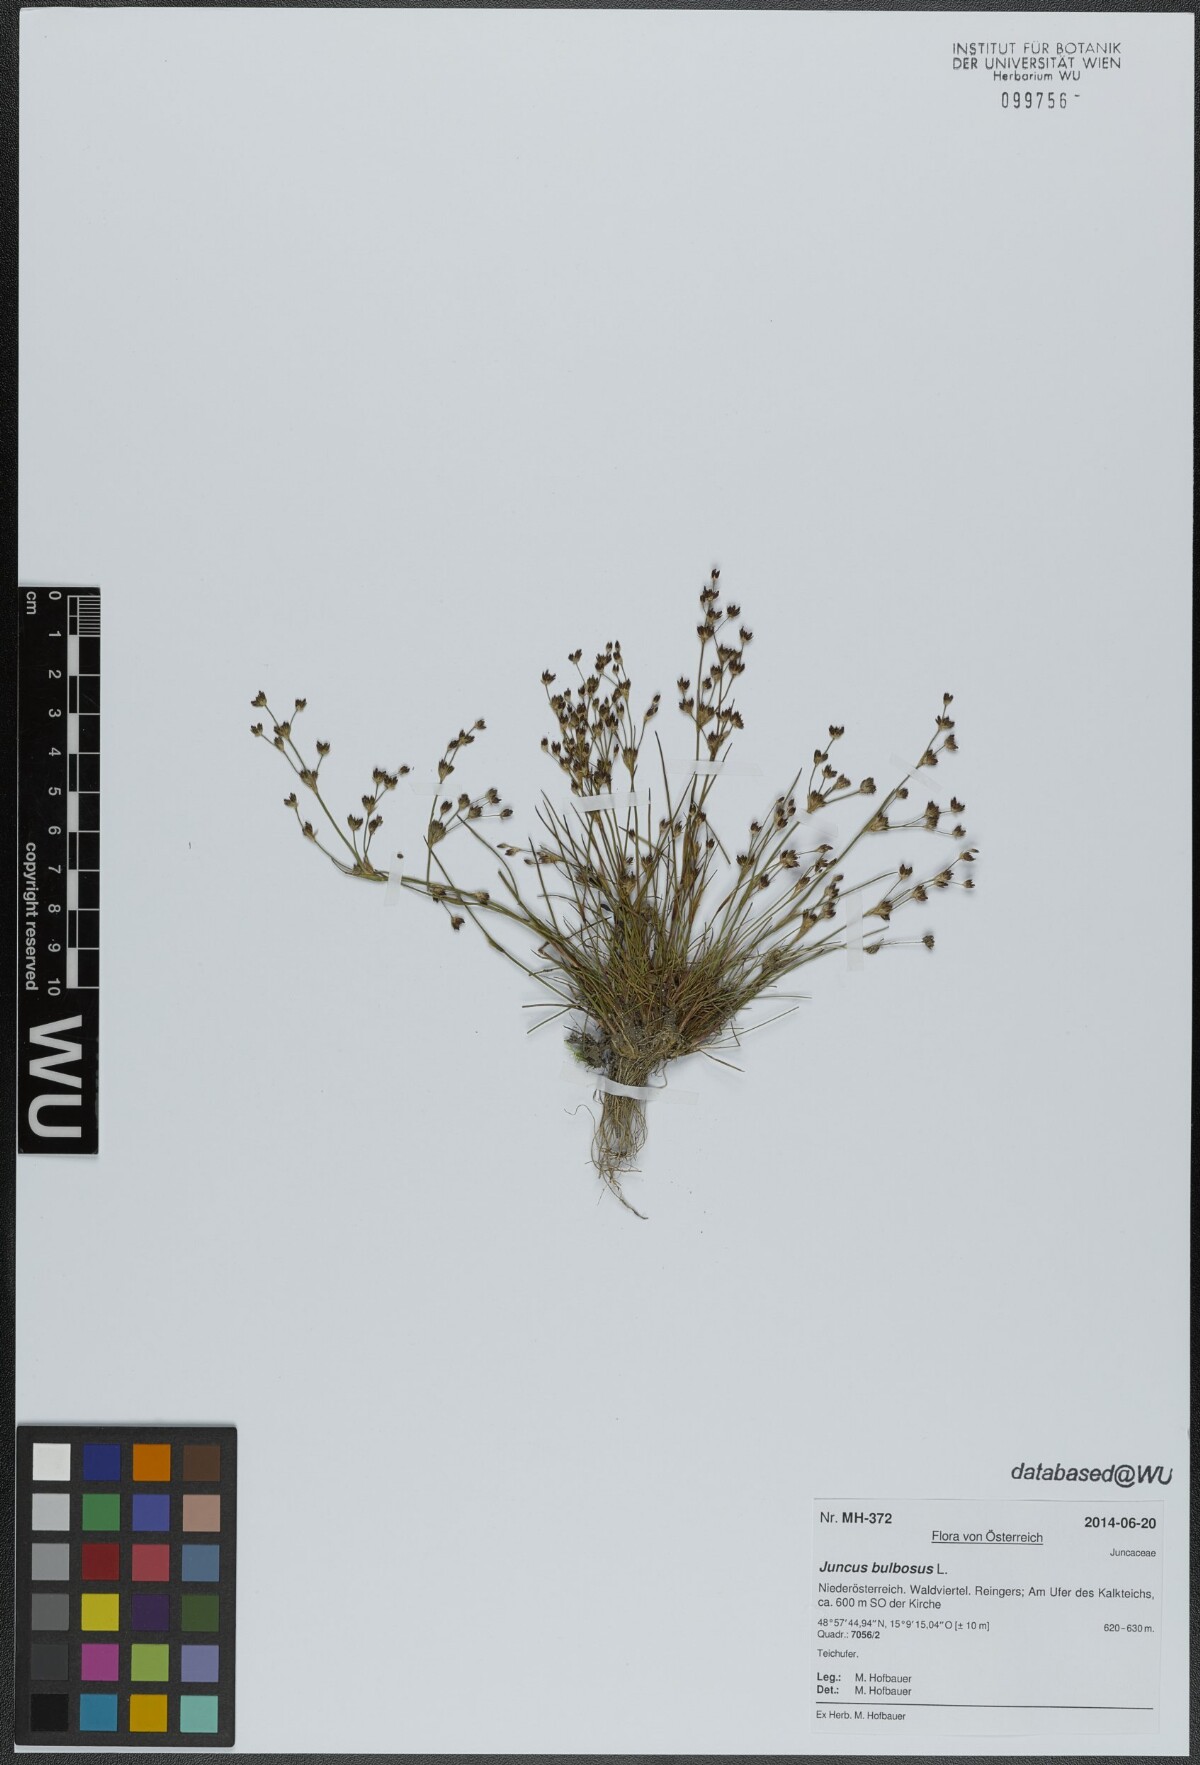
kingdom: Plantae
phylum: Tracheophyta
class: Liliopsida
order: Poales
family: Juncaceae
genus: Juncus
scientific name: Juncus bulbosus
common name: Bulbous rush
